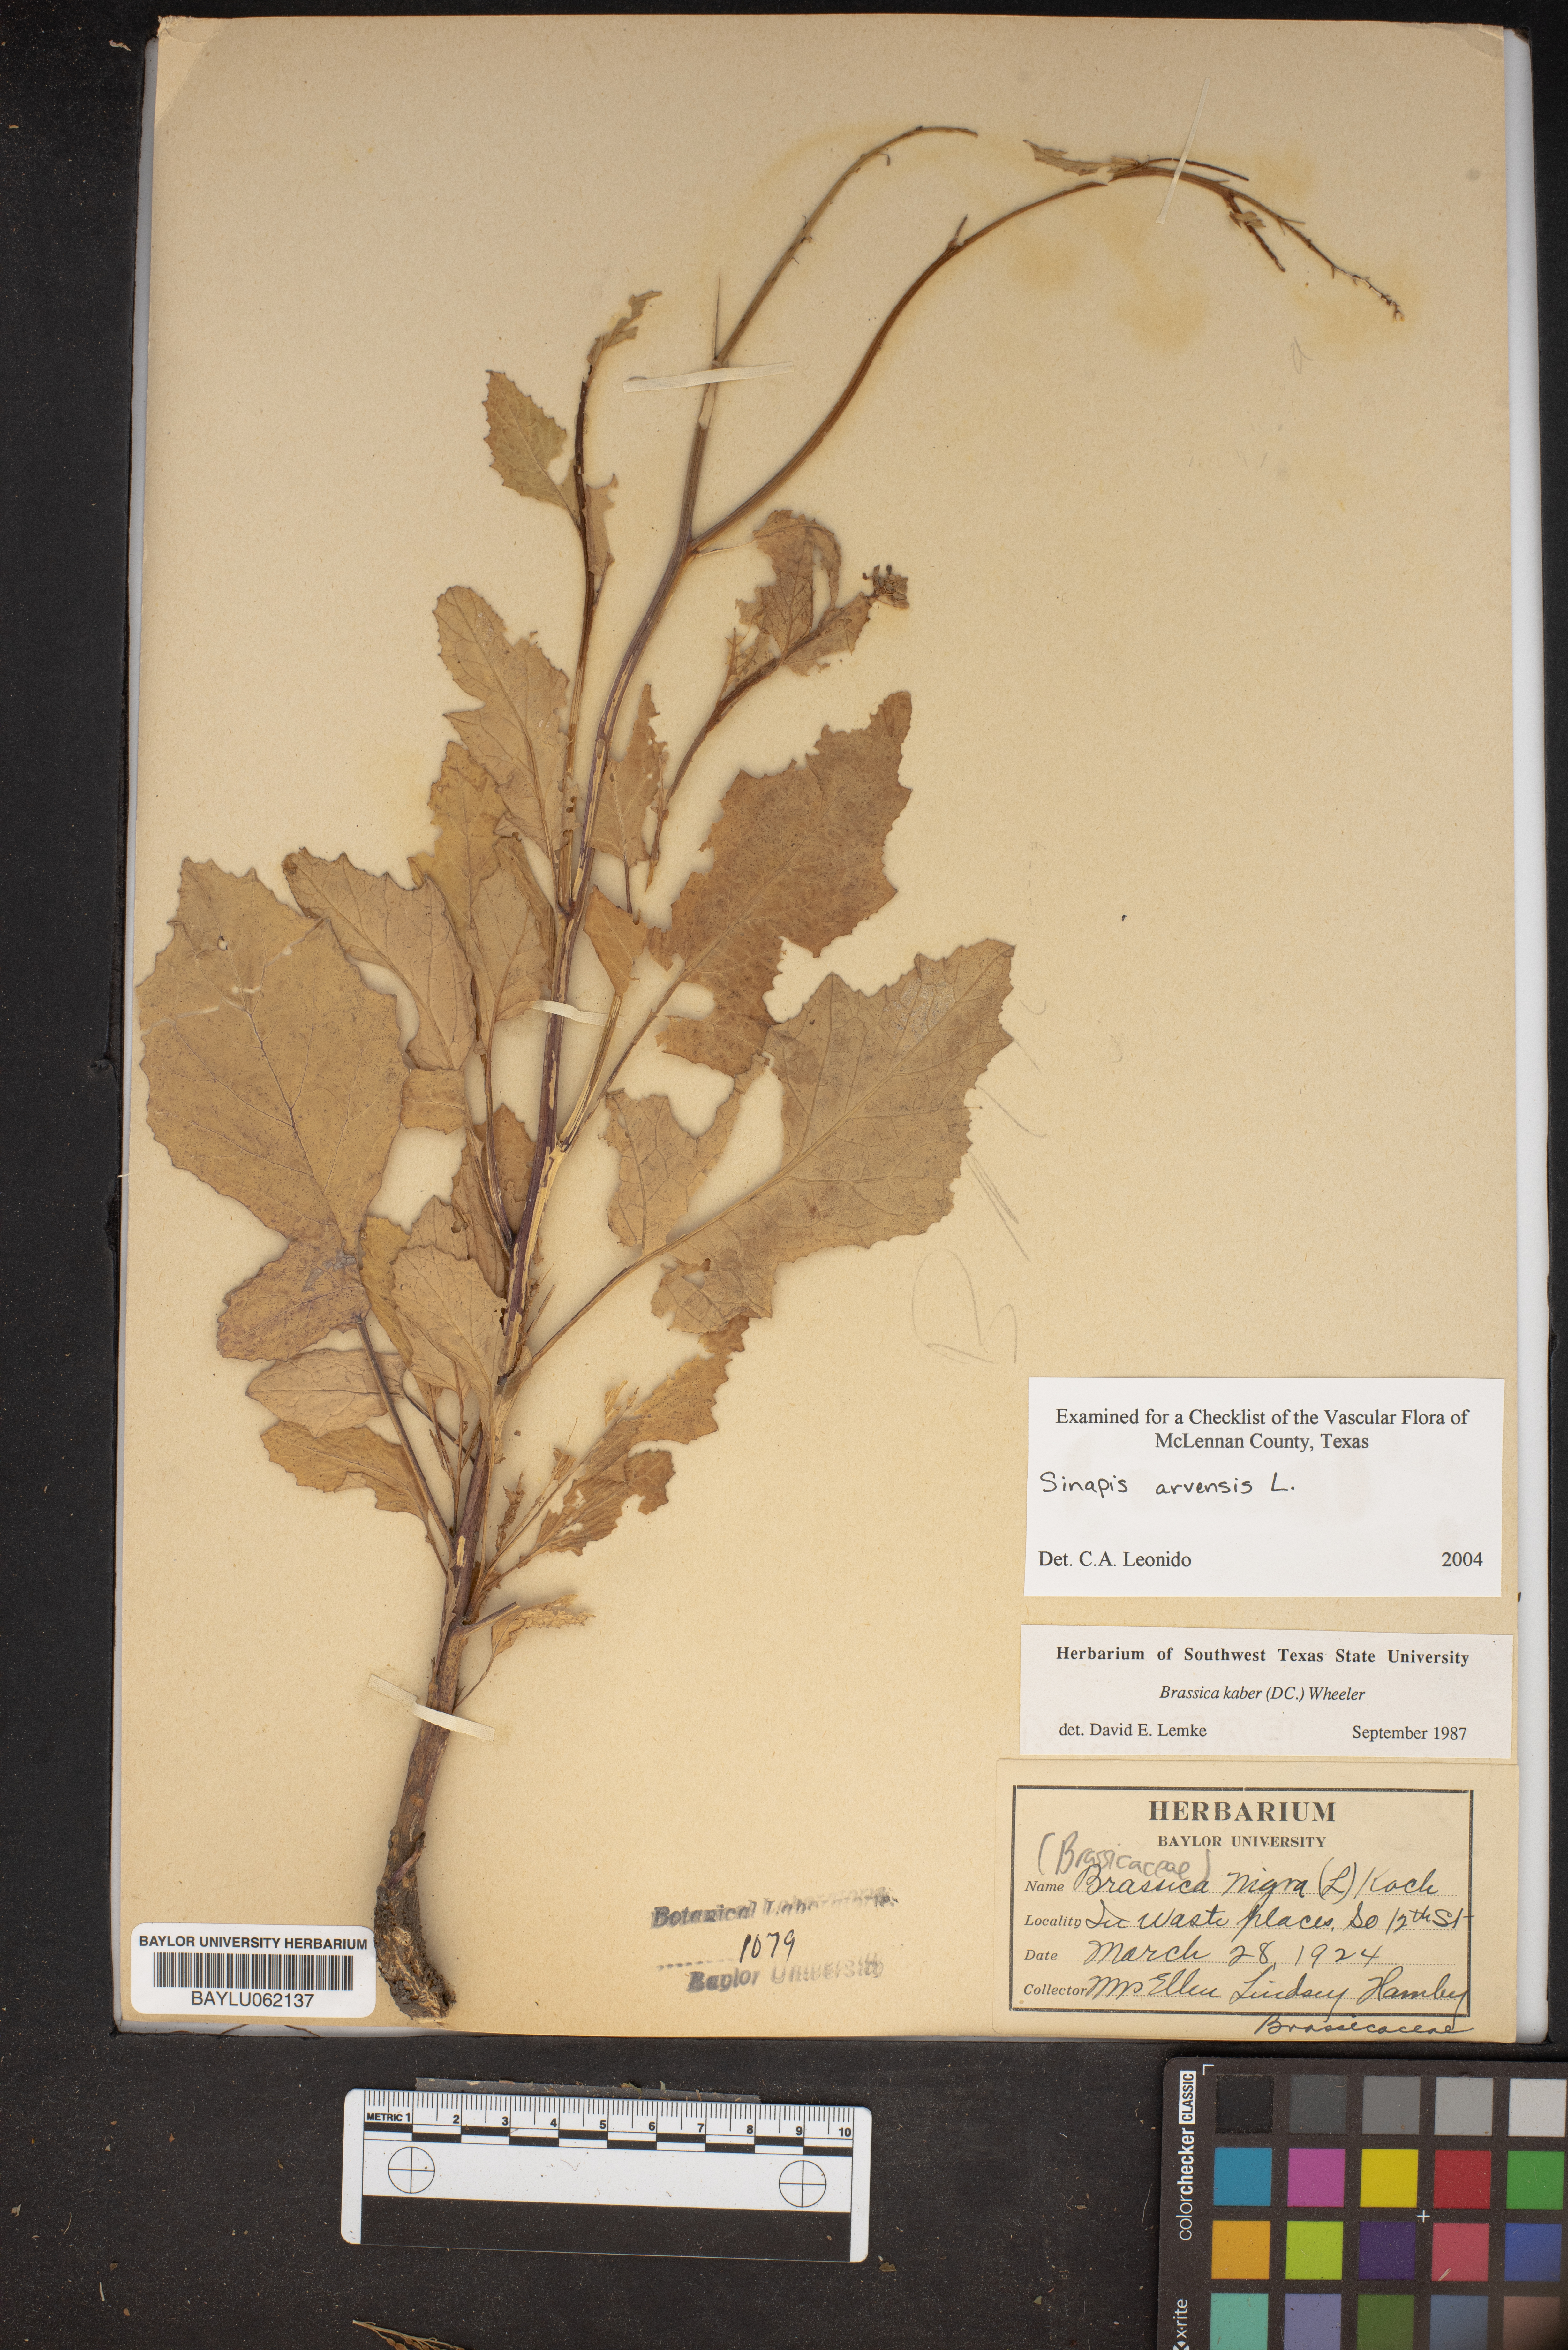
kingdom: Plantae
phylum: Tracheophyta
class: Magnoliopsida
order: Brassicales
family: Brassicaceae
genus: Sinapis
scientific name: Sinapis arvensis
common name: Charlock
